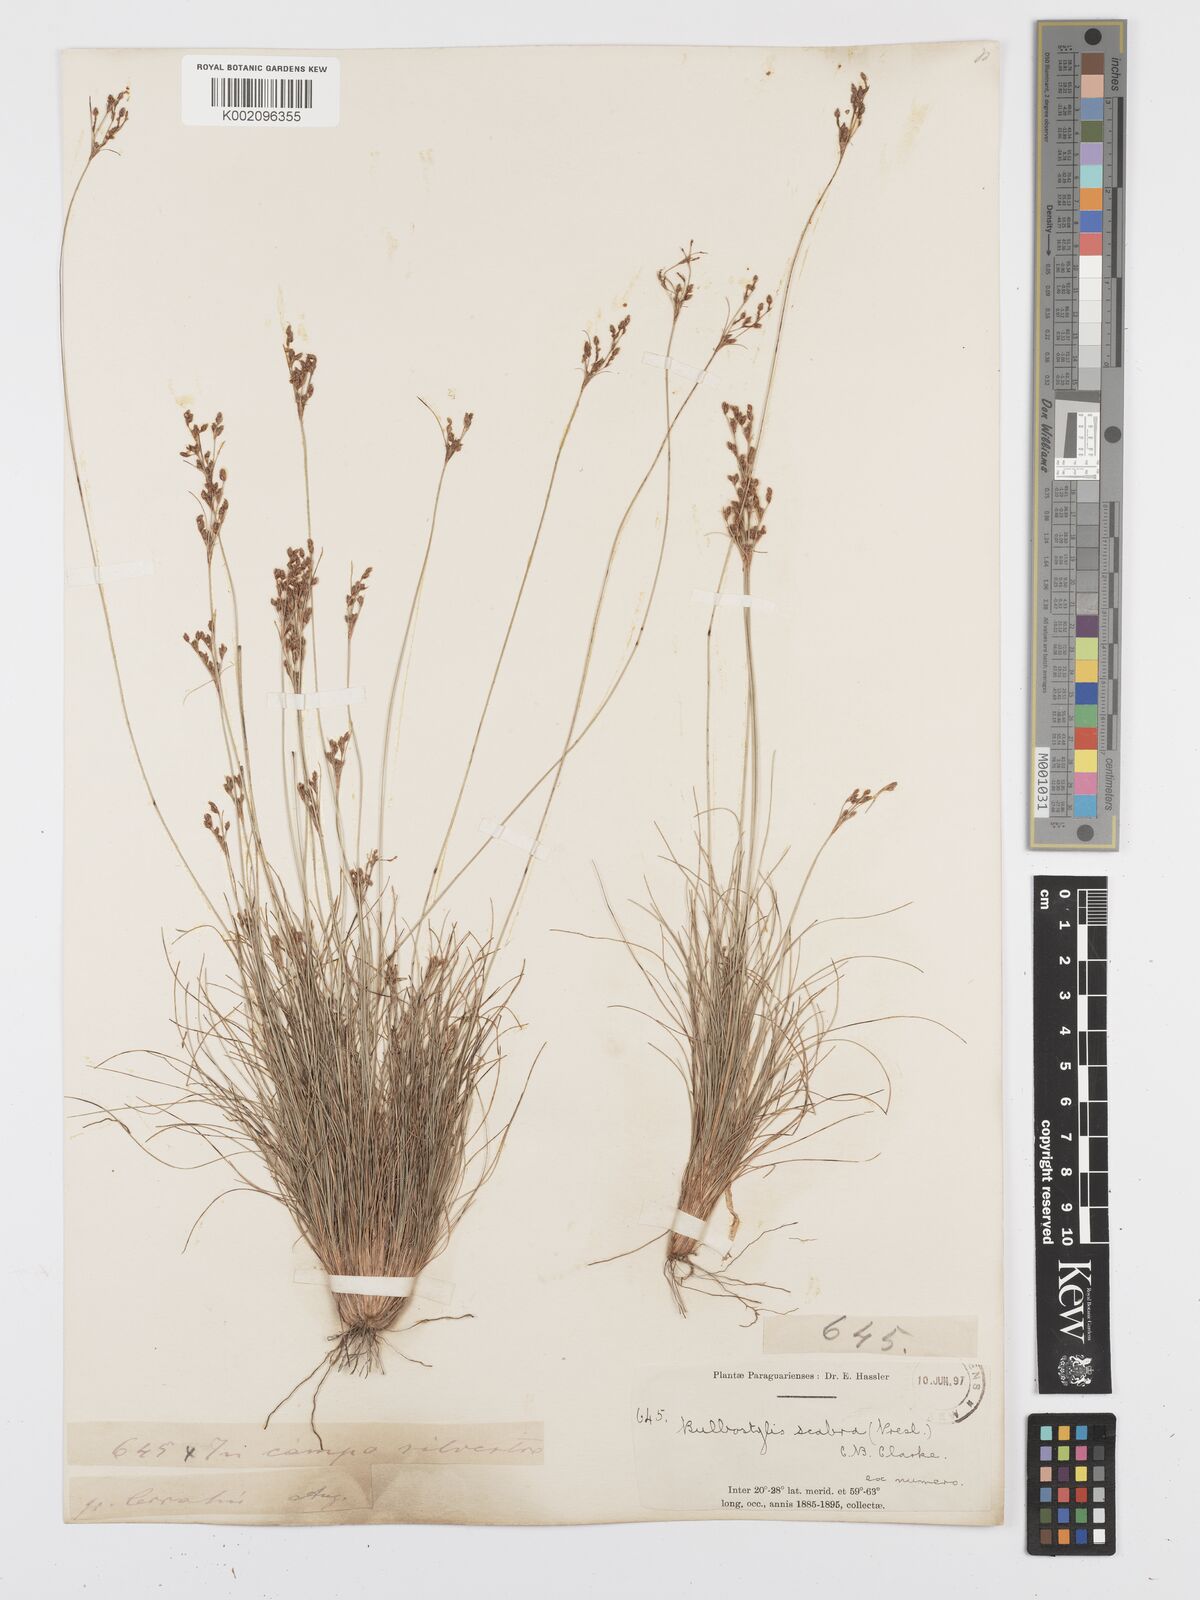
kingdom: Plantae
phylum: Tracheophyta
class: Liliopsida
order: Poales
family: Cyperaceae
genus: Bulbostylis
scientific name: Bulbostylis scabra
